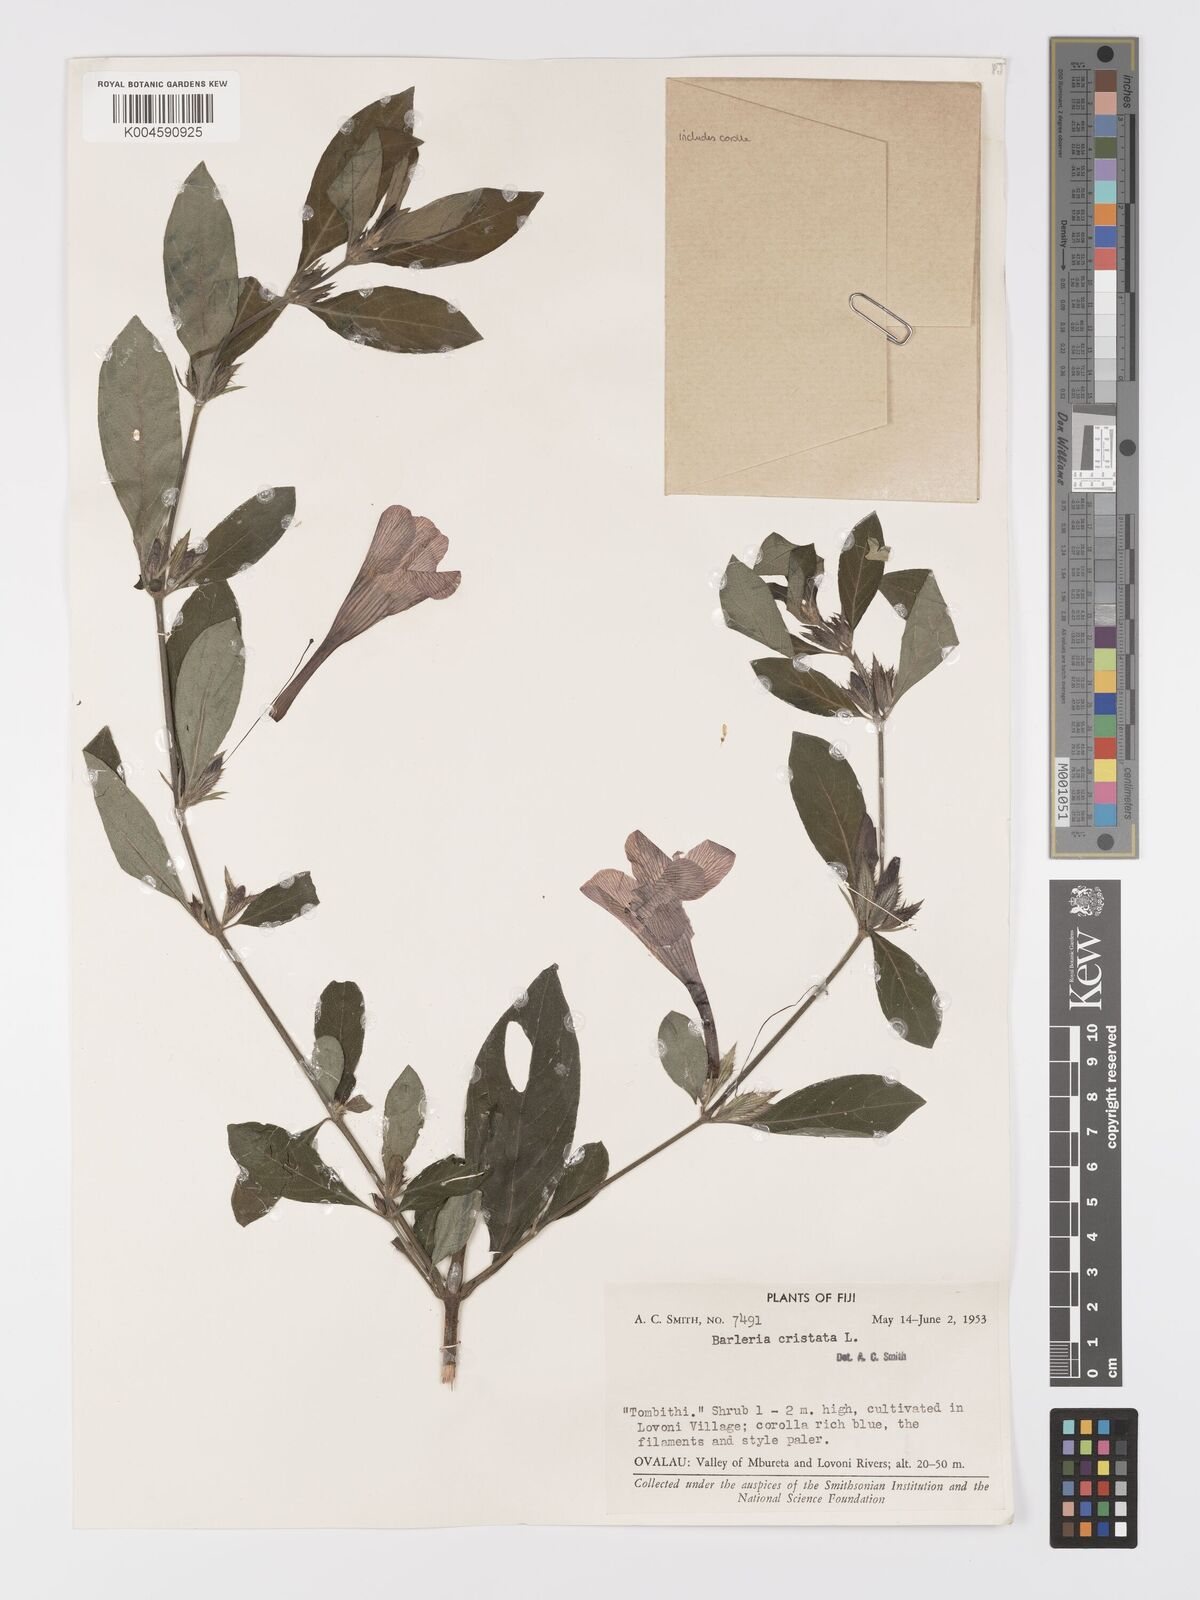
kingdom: Plantae
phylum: Tracheophyta
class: Magnoliopsida
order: Lamiales
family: Acanthaceae
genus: Barleria
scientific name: Barleria cristata
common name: Crested philippine violet
